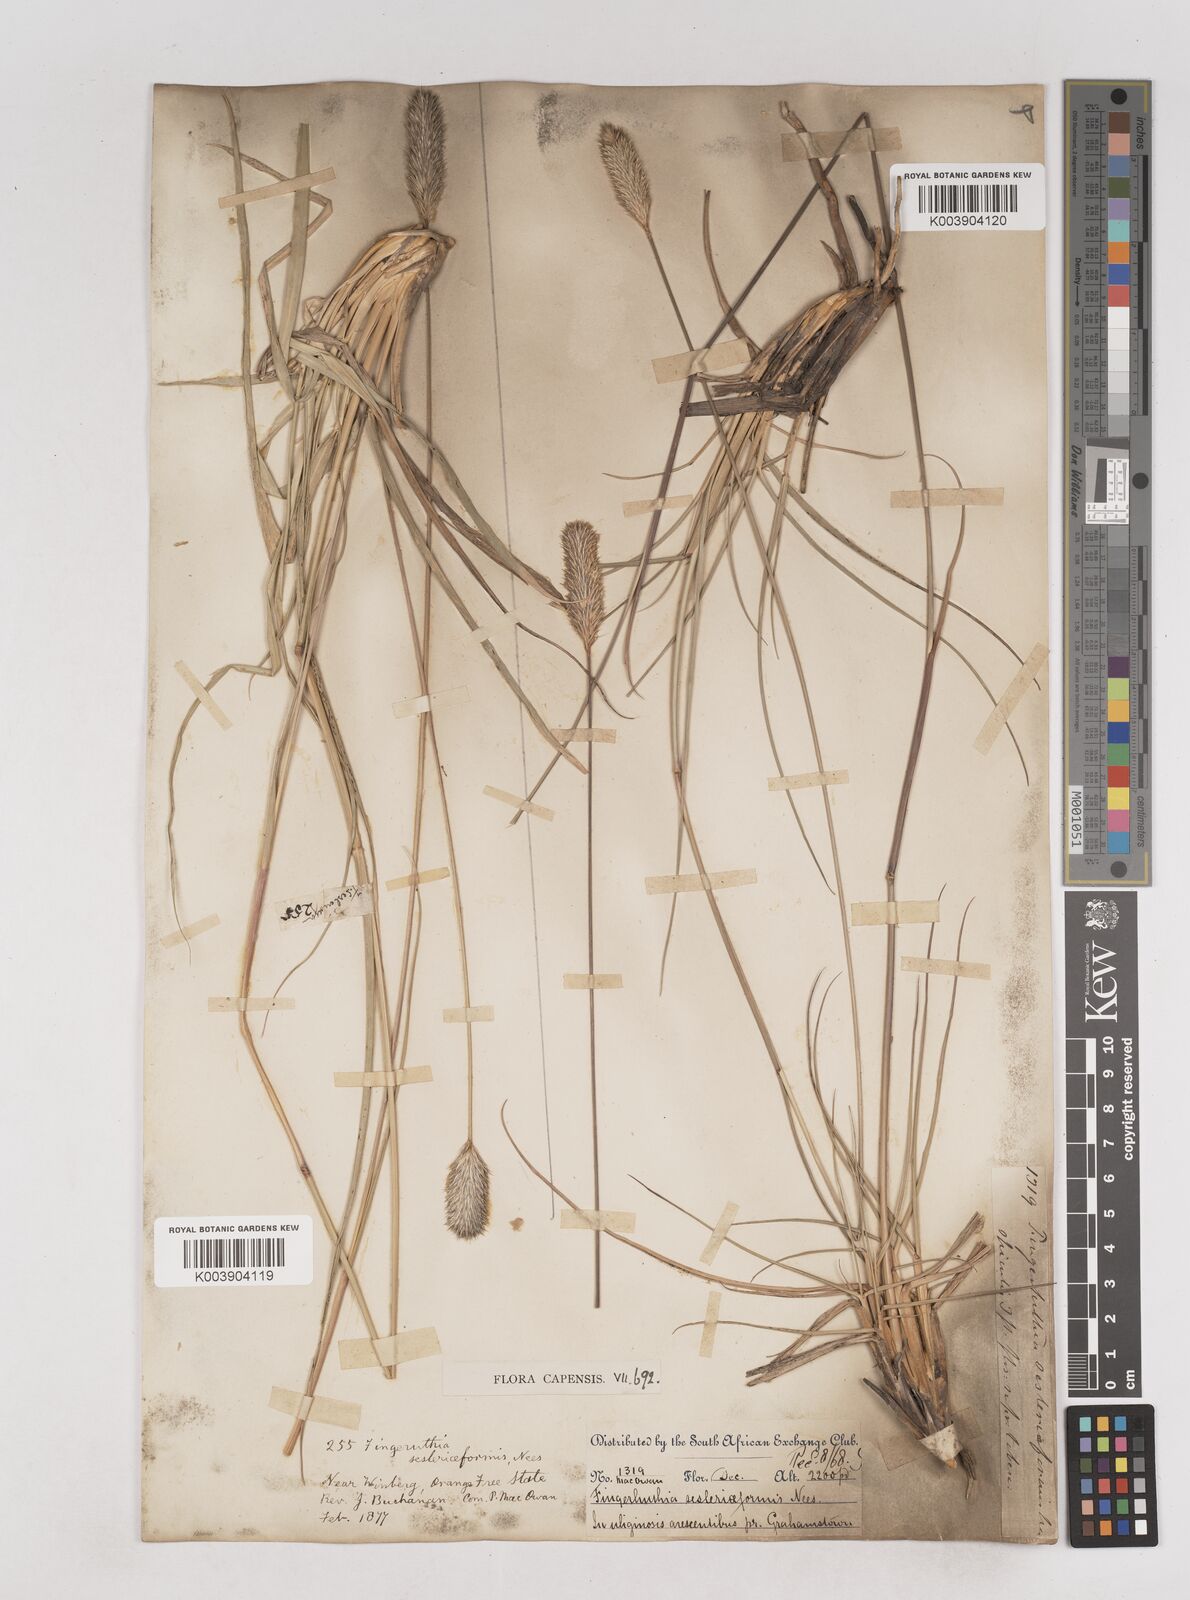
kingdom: Plantae
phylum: Tracheophyta
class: Liliopsida
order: Poales
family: Poaceae
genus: Fingerhuthia
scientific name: Fingerhuthia sesleriiformis
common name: Thimble grass
